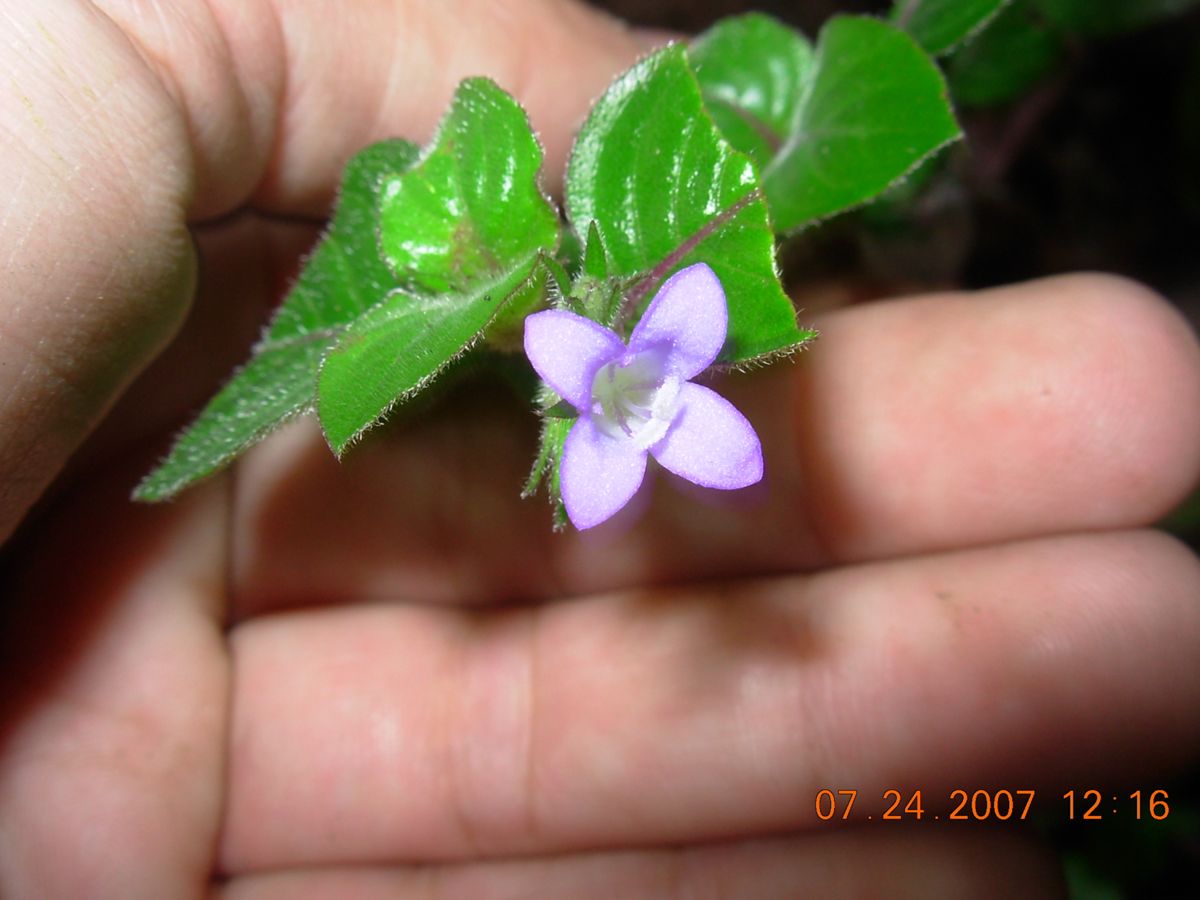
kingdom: Plantae
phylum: Tracheophyta
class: Magnoliopsida
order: Gentianales
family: Rubiaceae
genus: Coccocypselum
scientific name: Coccocypselum hirsutum
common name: Yerba de guava
